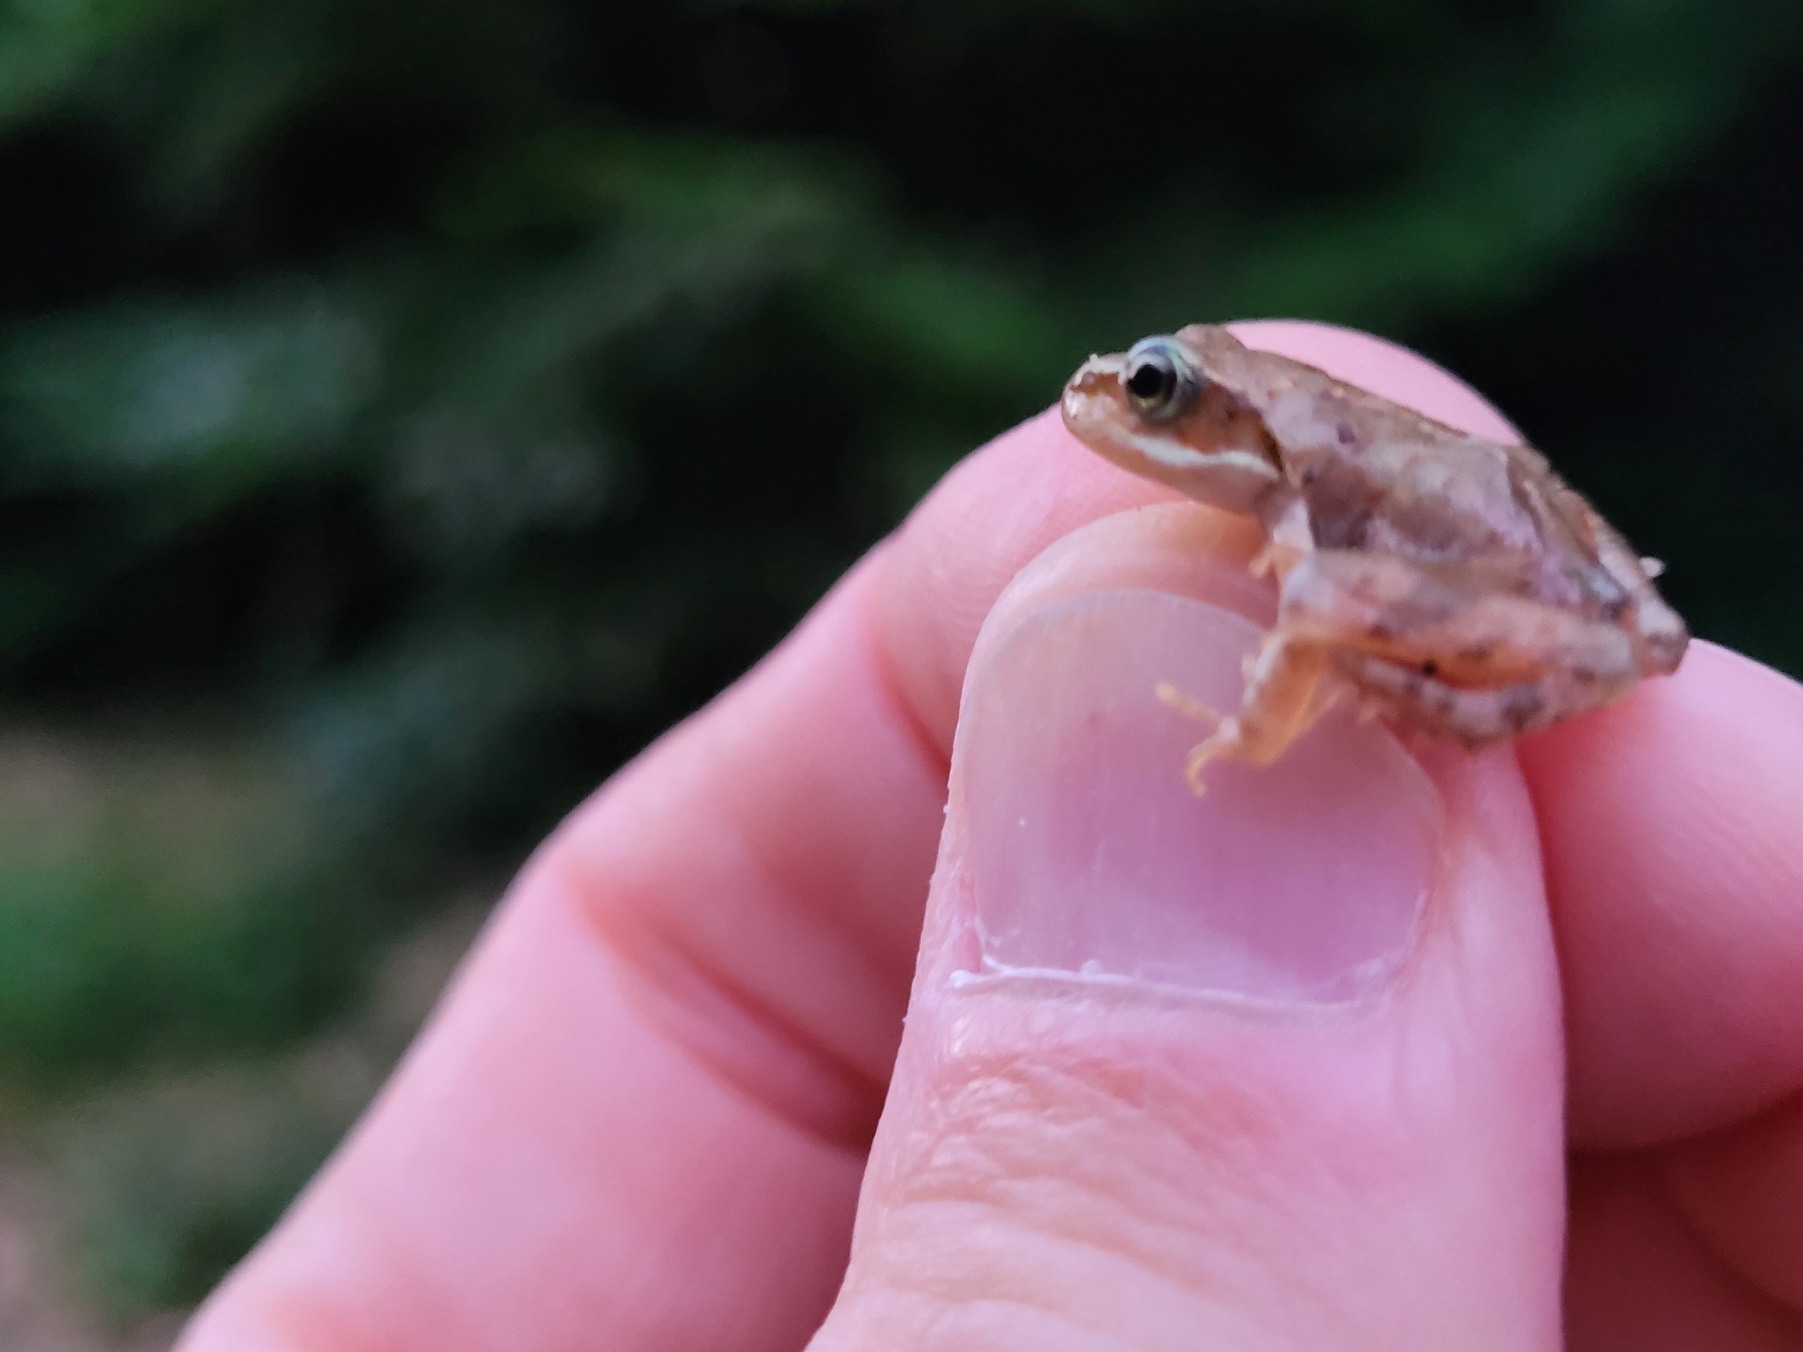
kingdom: Animalia
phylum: Chordata
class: Amphibia
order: Anura
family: Ranidae
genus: Rana
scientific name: Rana temporaria
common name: Butsnudet frø
